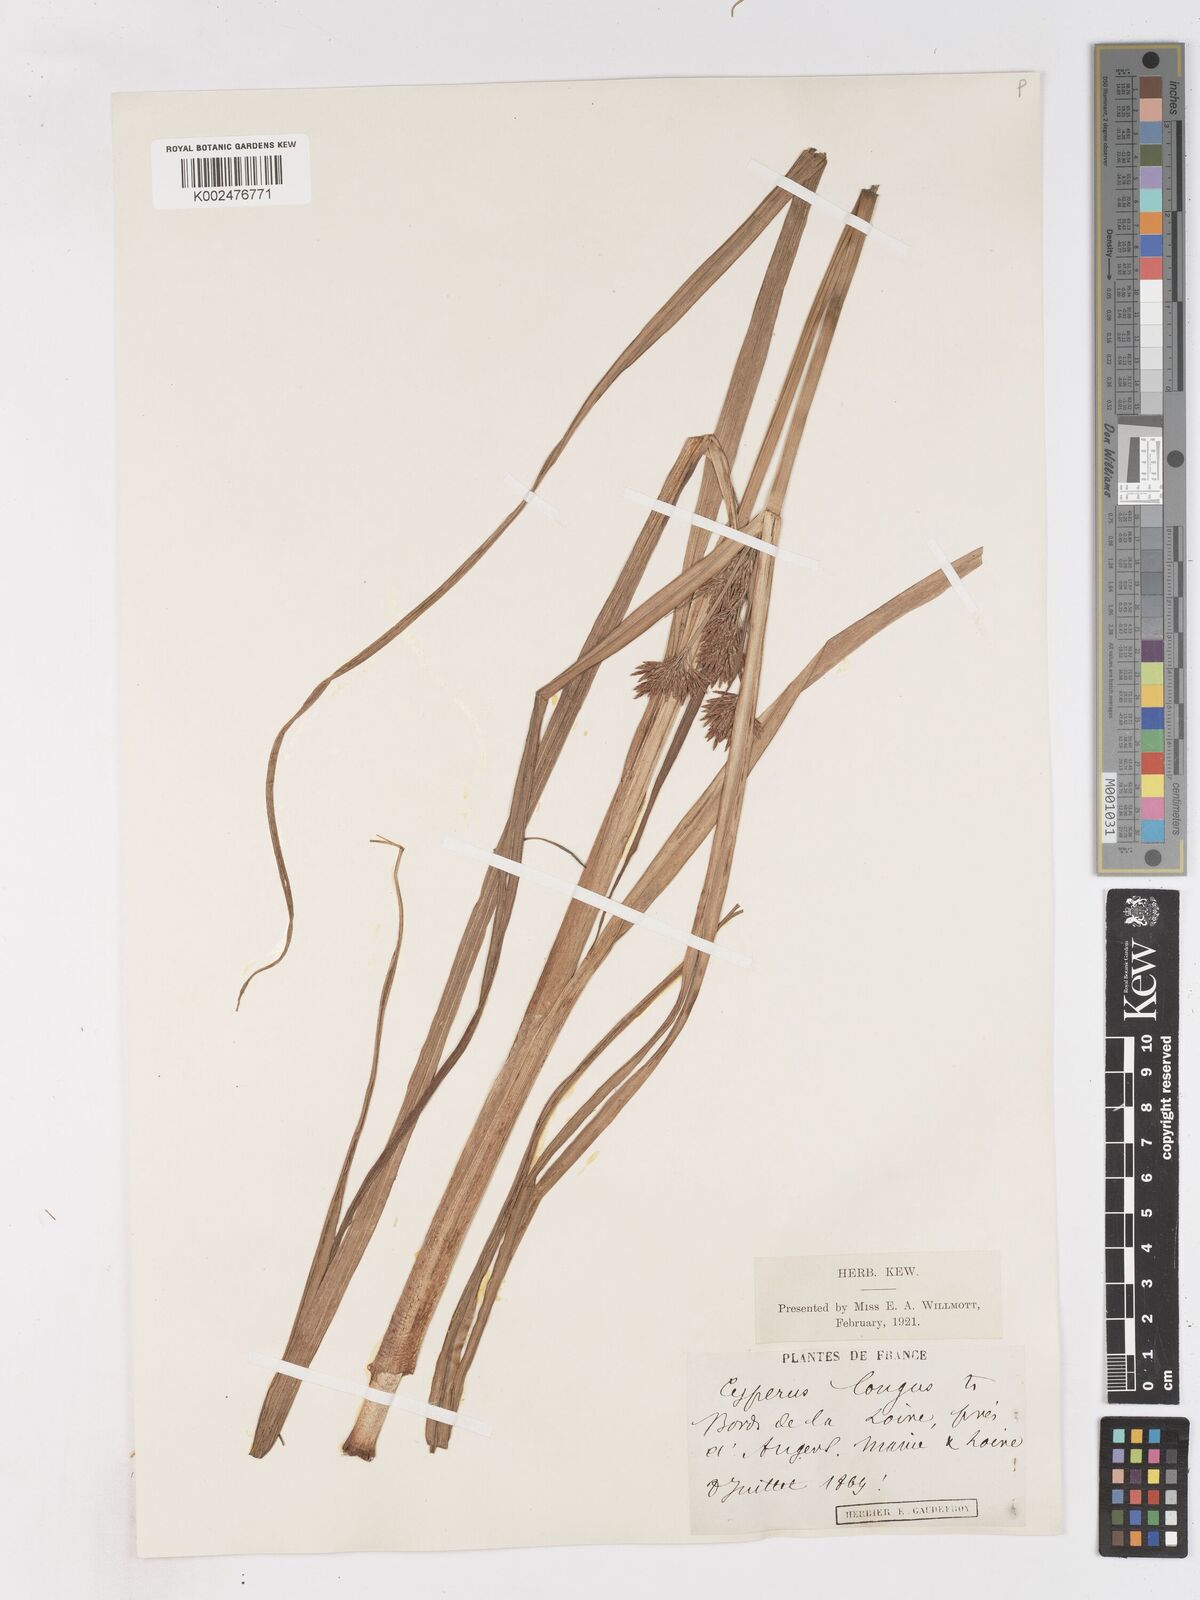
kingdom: Plantae
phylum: Tracheophyta
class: Liliopsida
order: Poales
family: Cyperaceae
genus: Cyperus
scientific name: Cyperus longus
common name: Galingale
